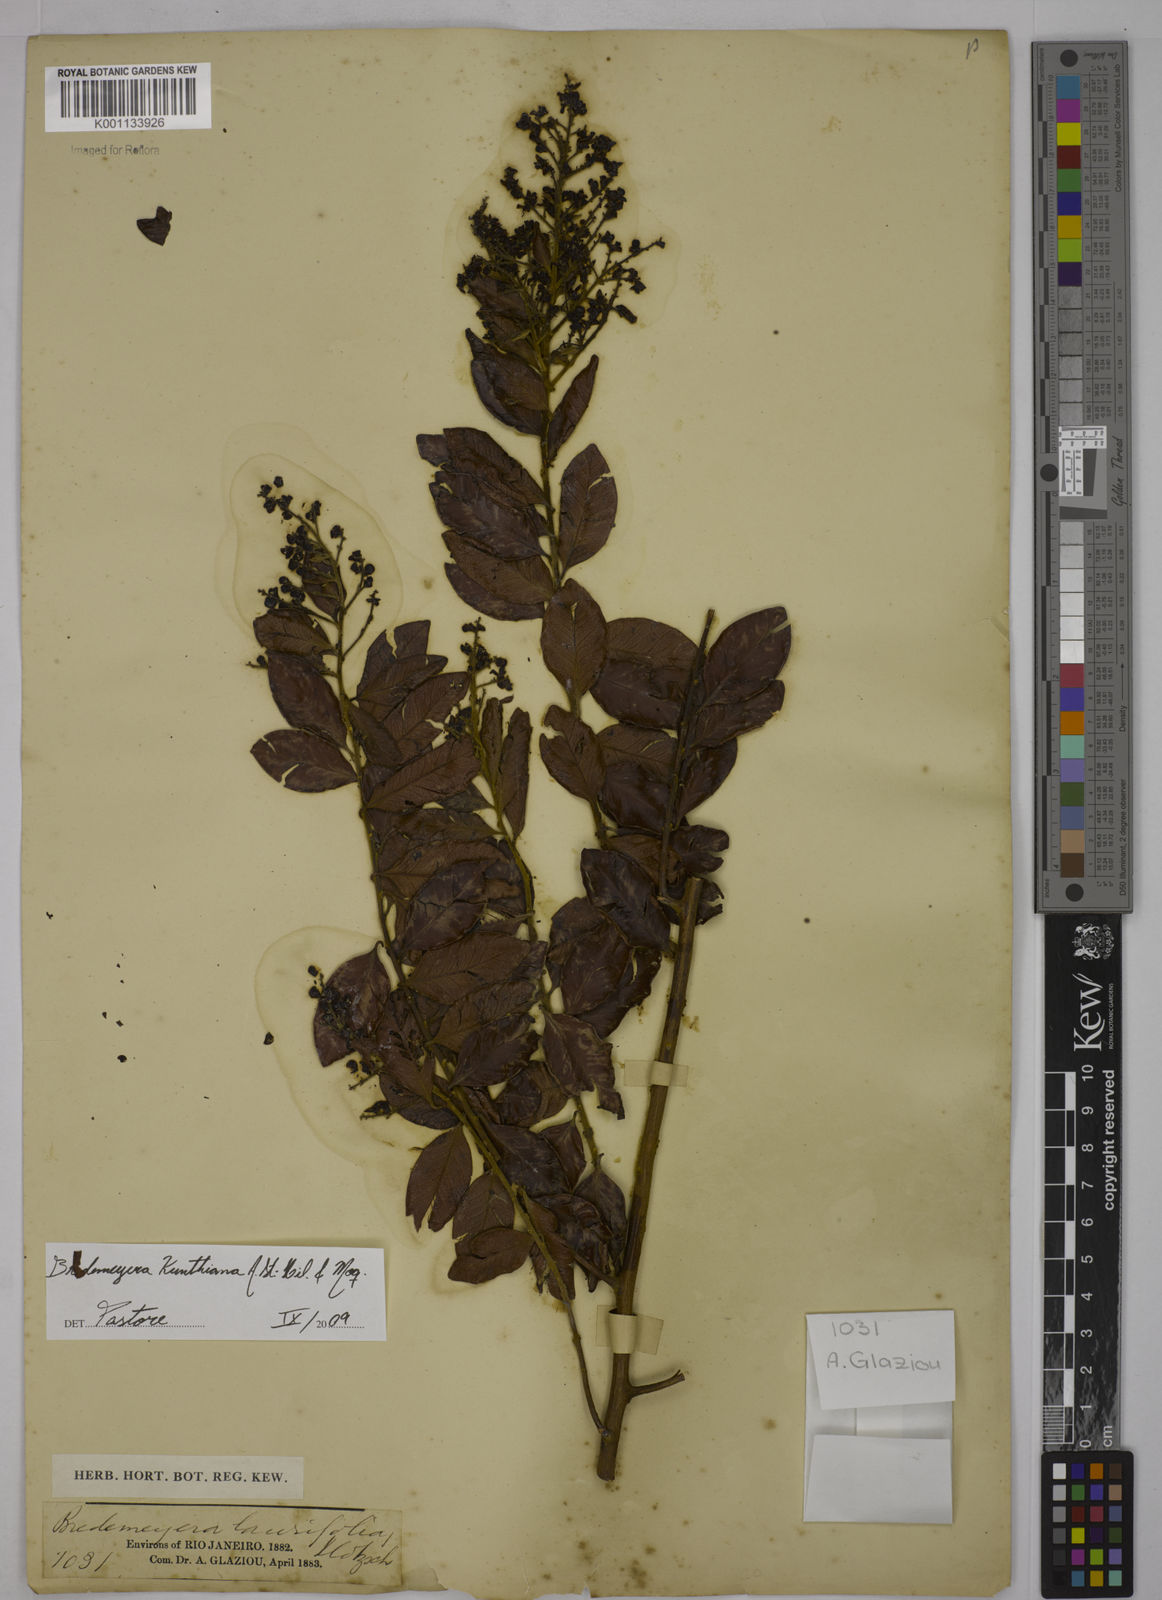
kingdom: Plantae
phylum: Tracheophyta
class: Magnoliopsida
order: Fabales
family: Polygalaceae
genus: Bredemeyera
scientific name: Bredemeyera hebeclada
